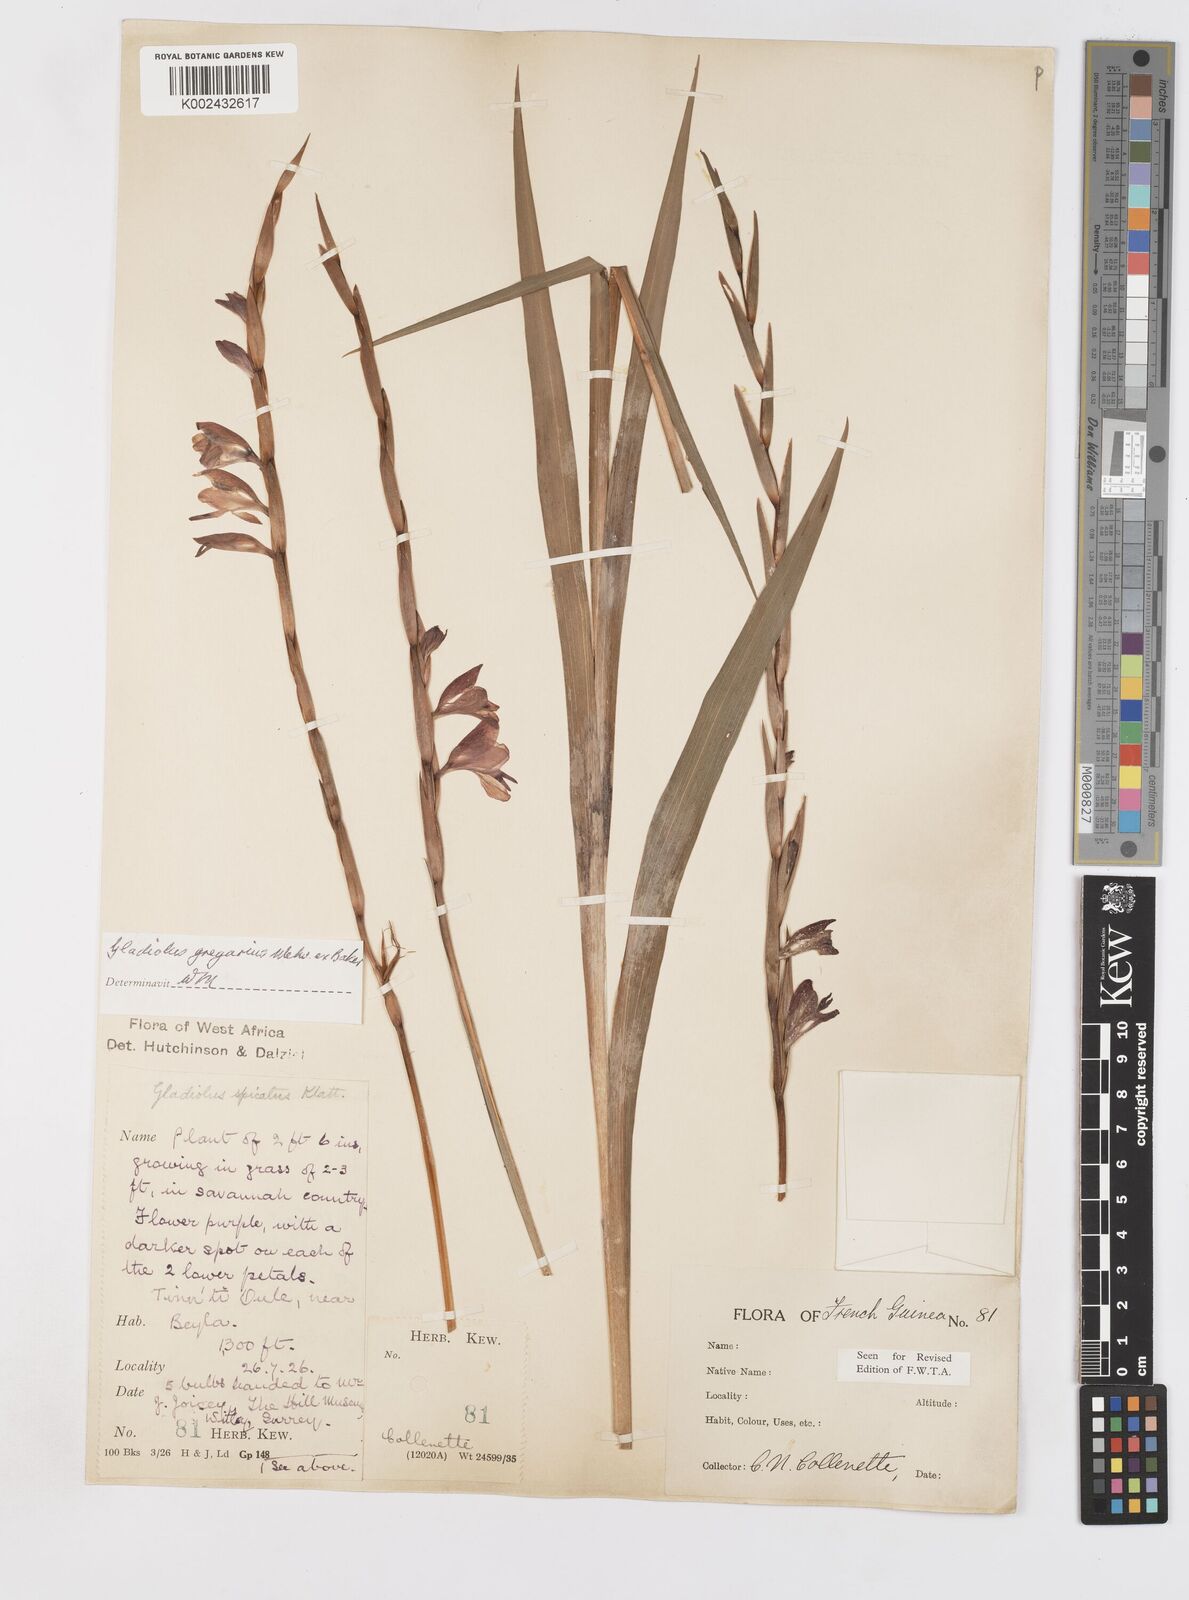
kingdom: Plantae
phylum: Tracheophyta
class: Liliopsida
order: Asparagales
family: Iridaceae
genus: Gladiolus
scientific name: Gladiolus gregarius
